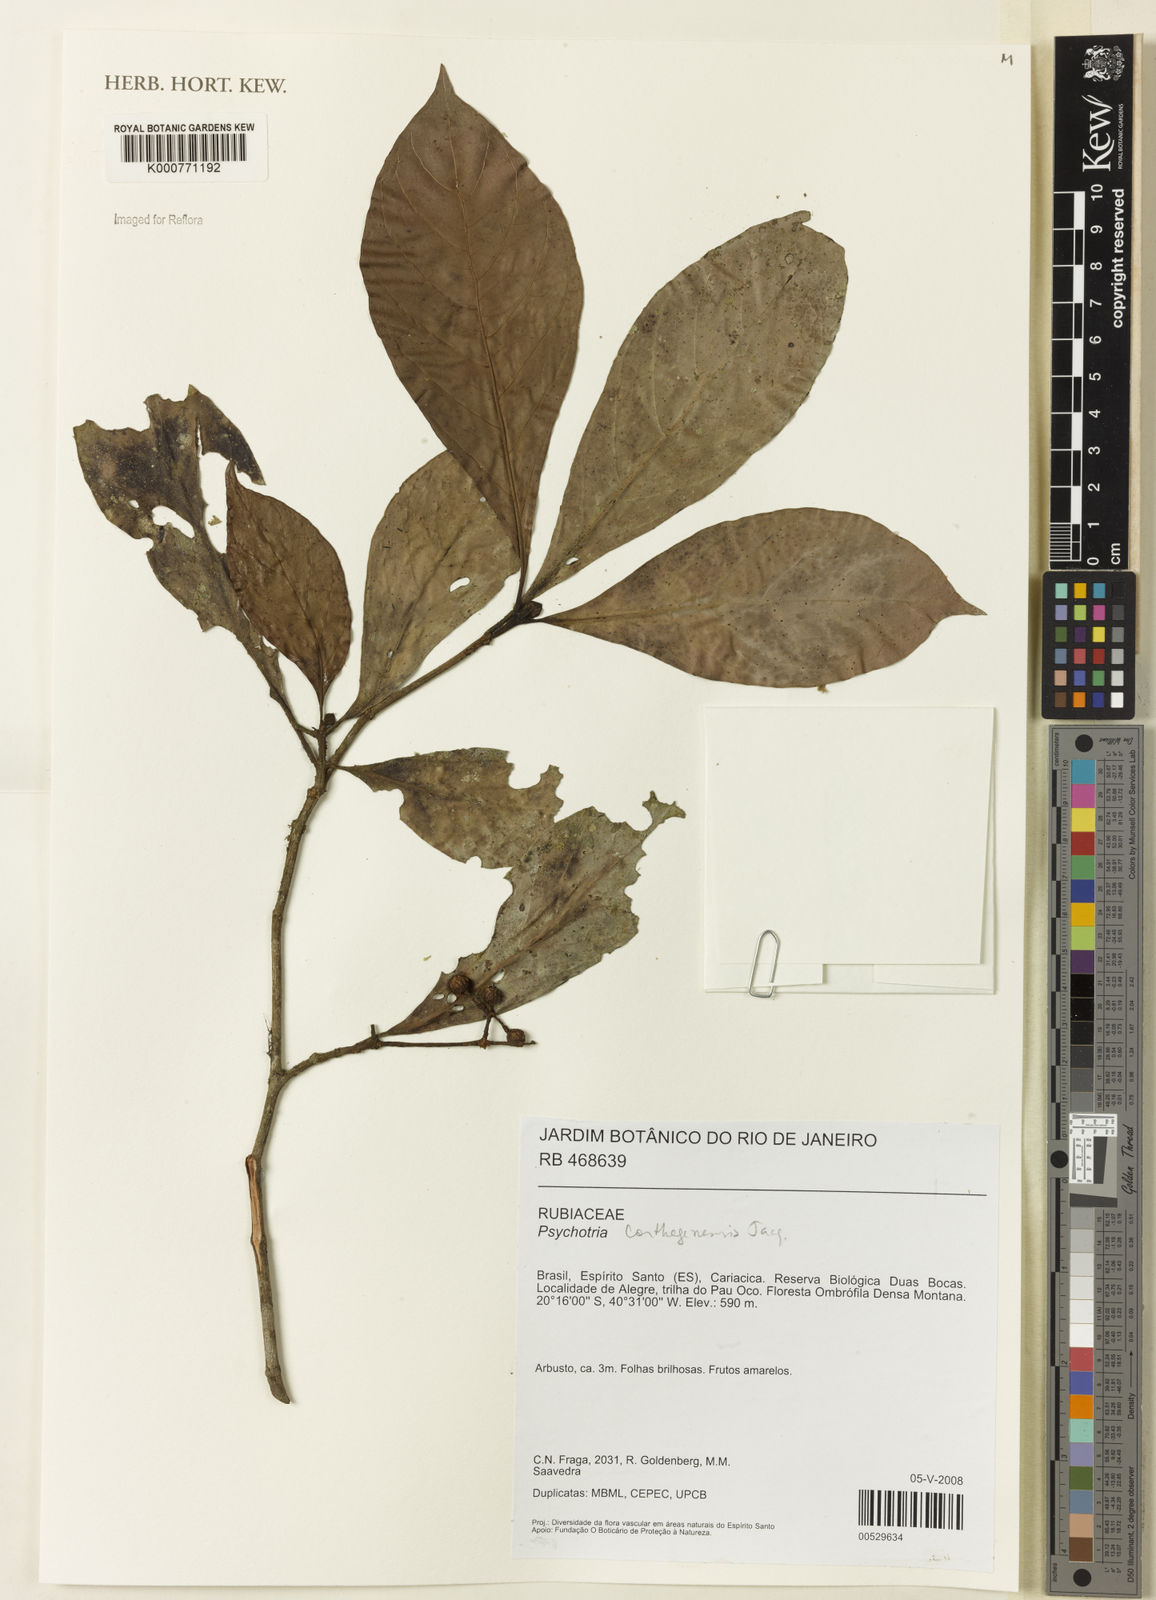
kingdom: Plantae
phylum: Tracheophyta
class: Magnoliopsida
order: Gentianales
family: Rubiaceae
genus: Psychotria
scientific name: Psychotria carthagenensis
